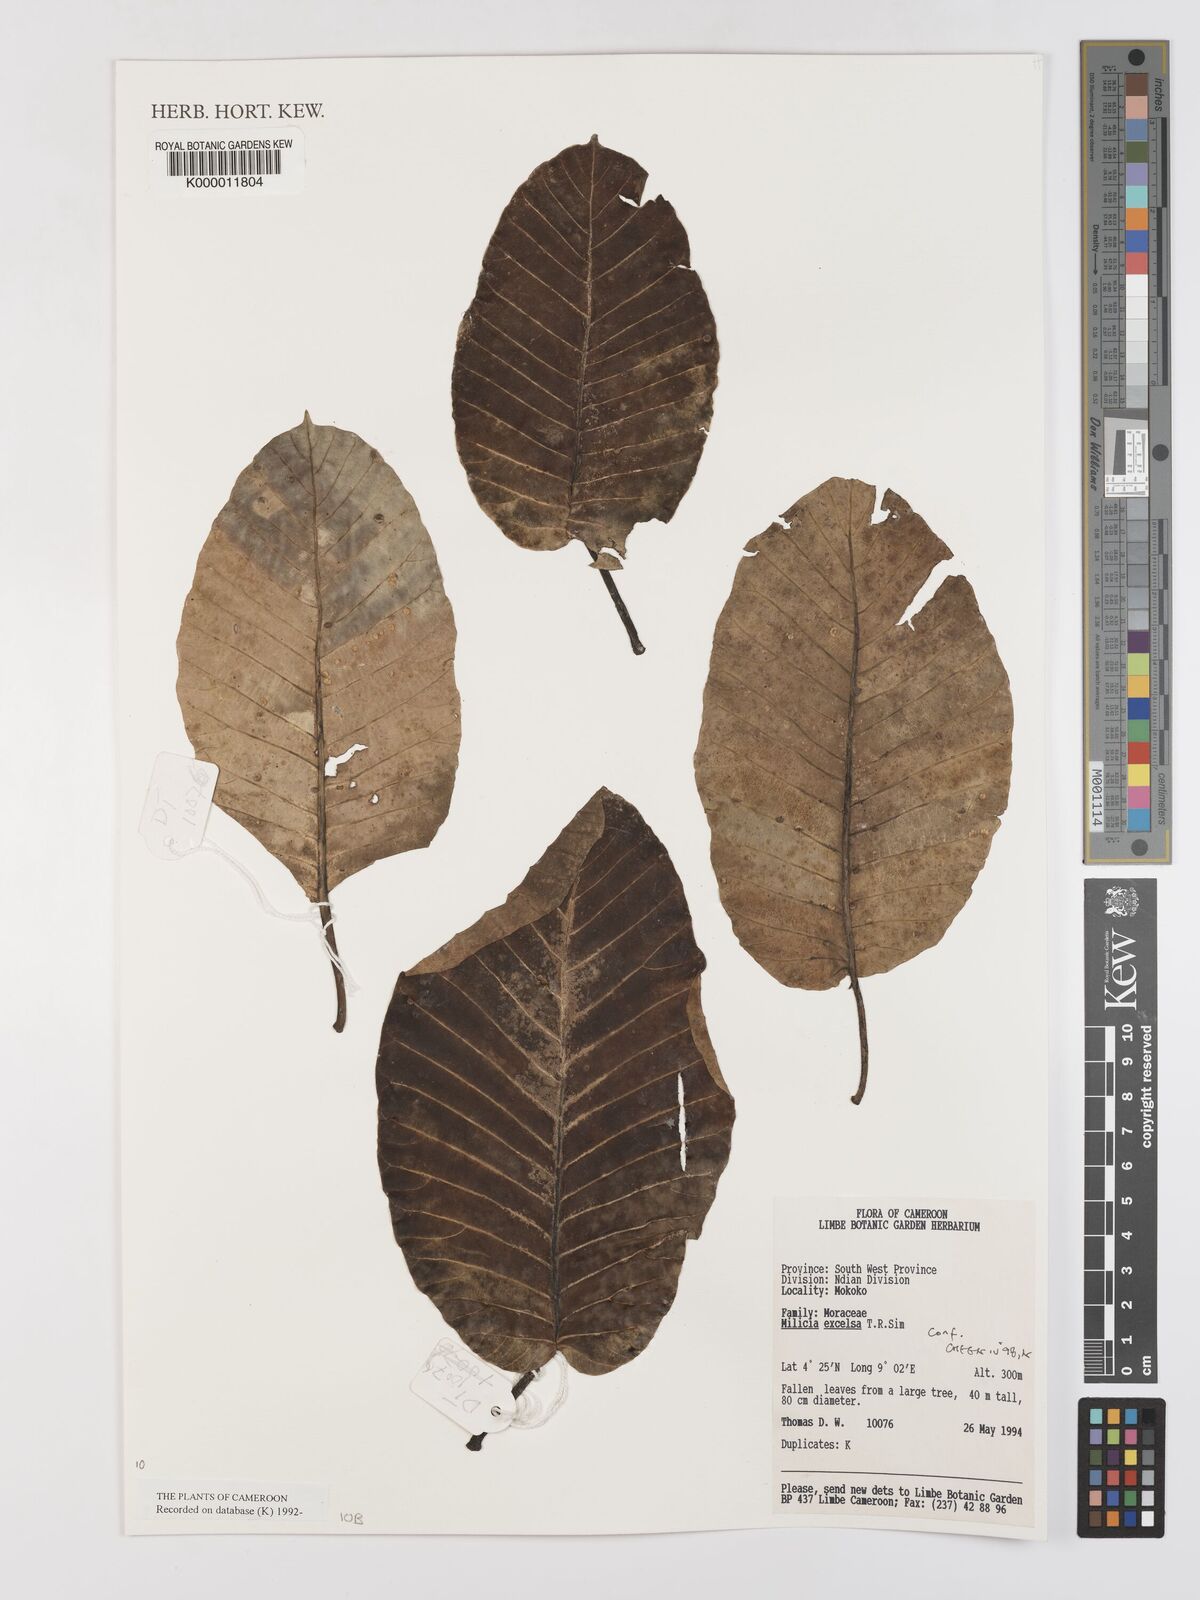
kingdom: Plantae
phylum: Tracheophyta
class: Magnoliopsida
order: Rosales
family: Moraceae
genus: Milicia
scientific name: Milicia excelsa
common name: African teak
